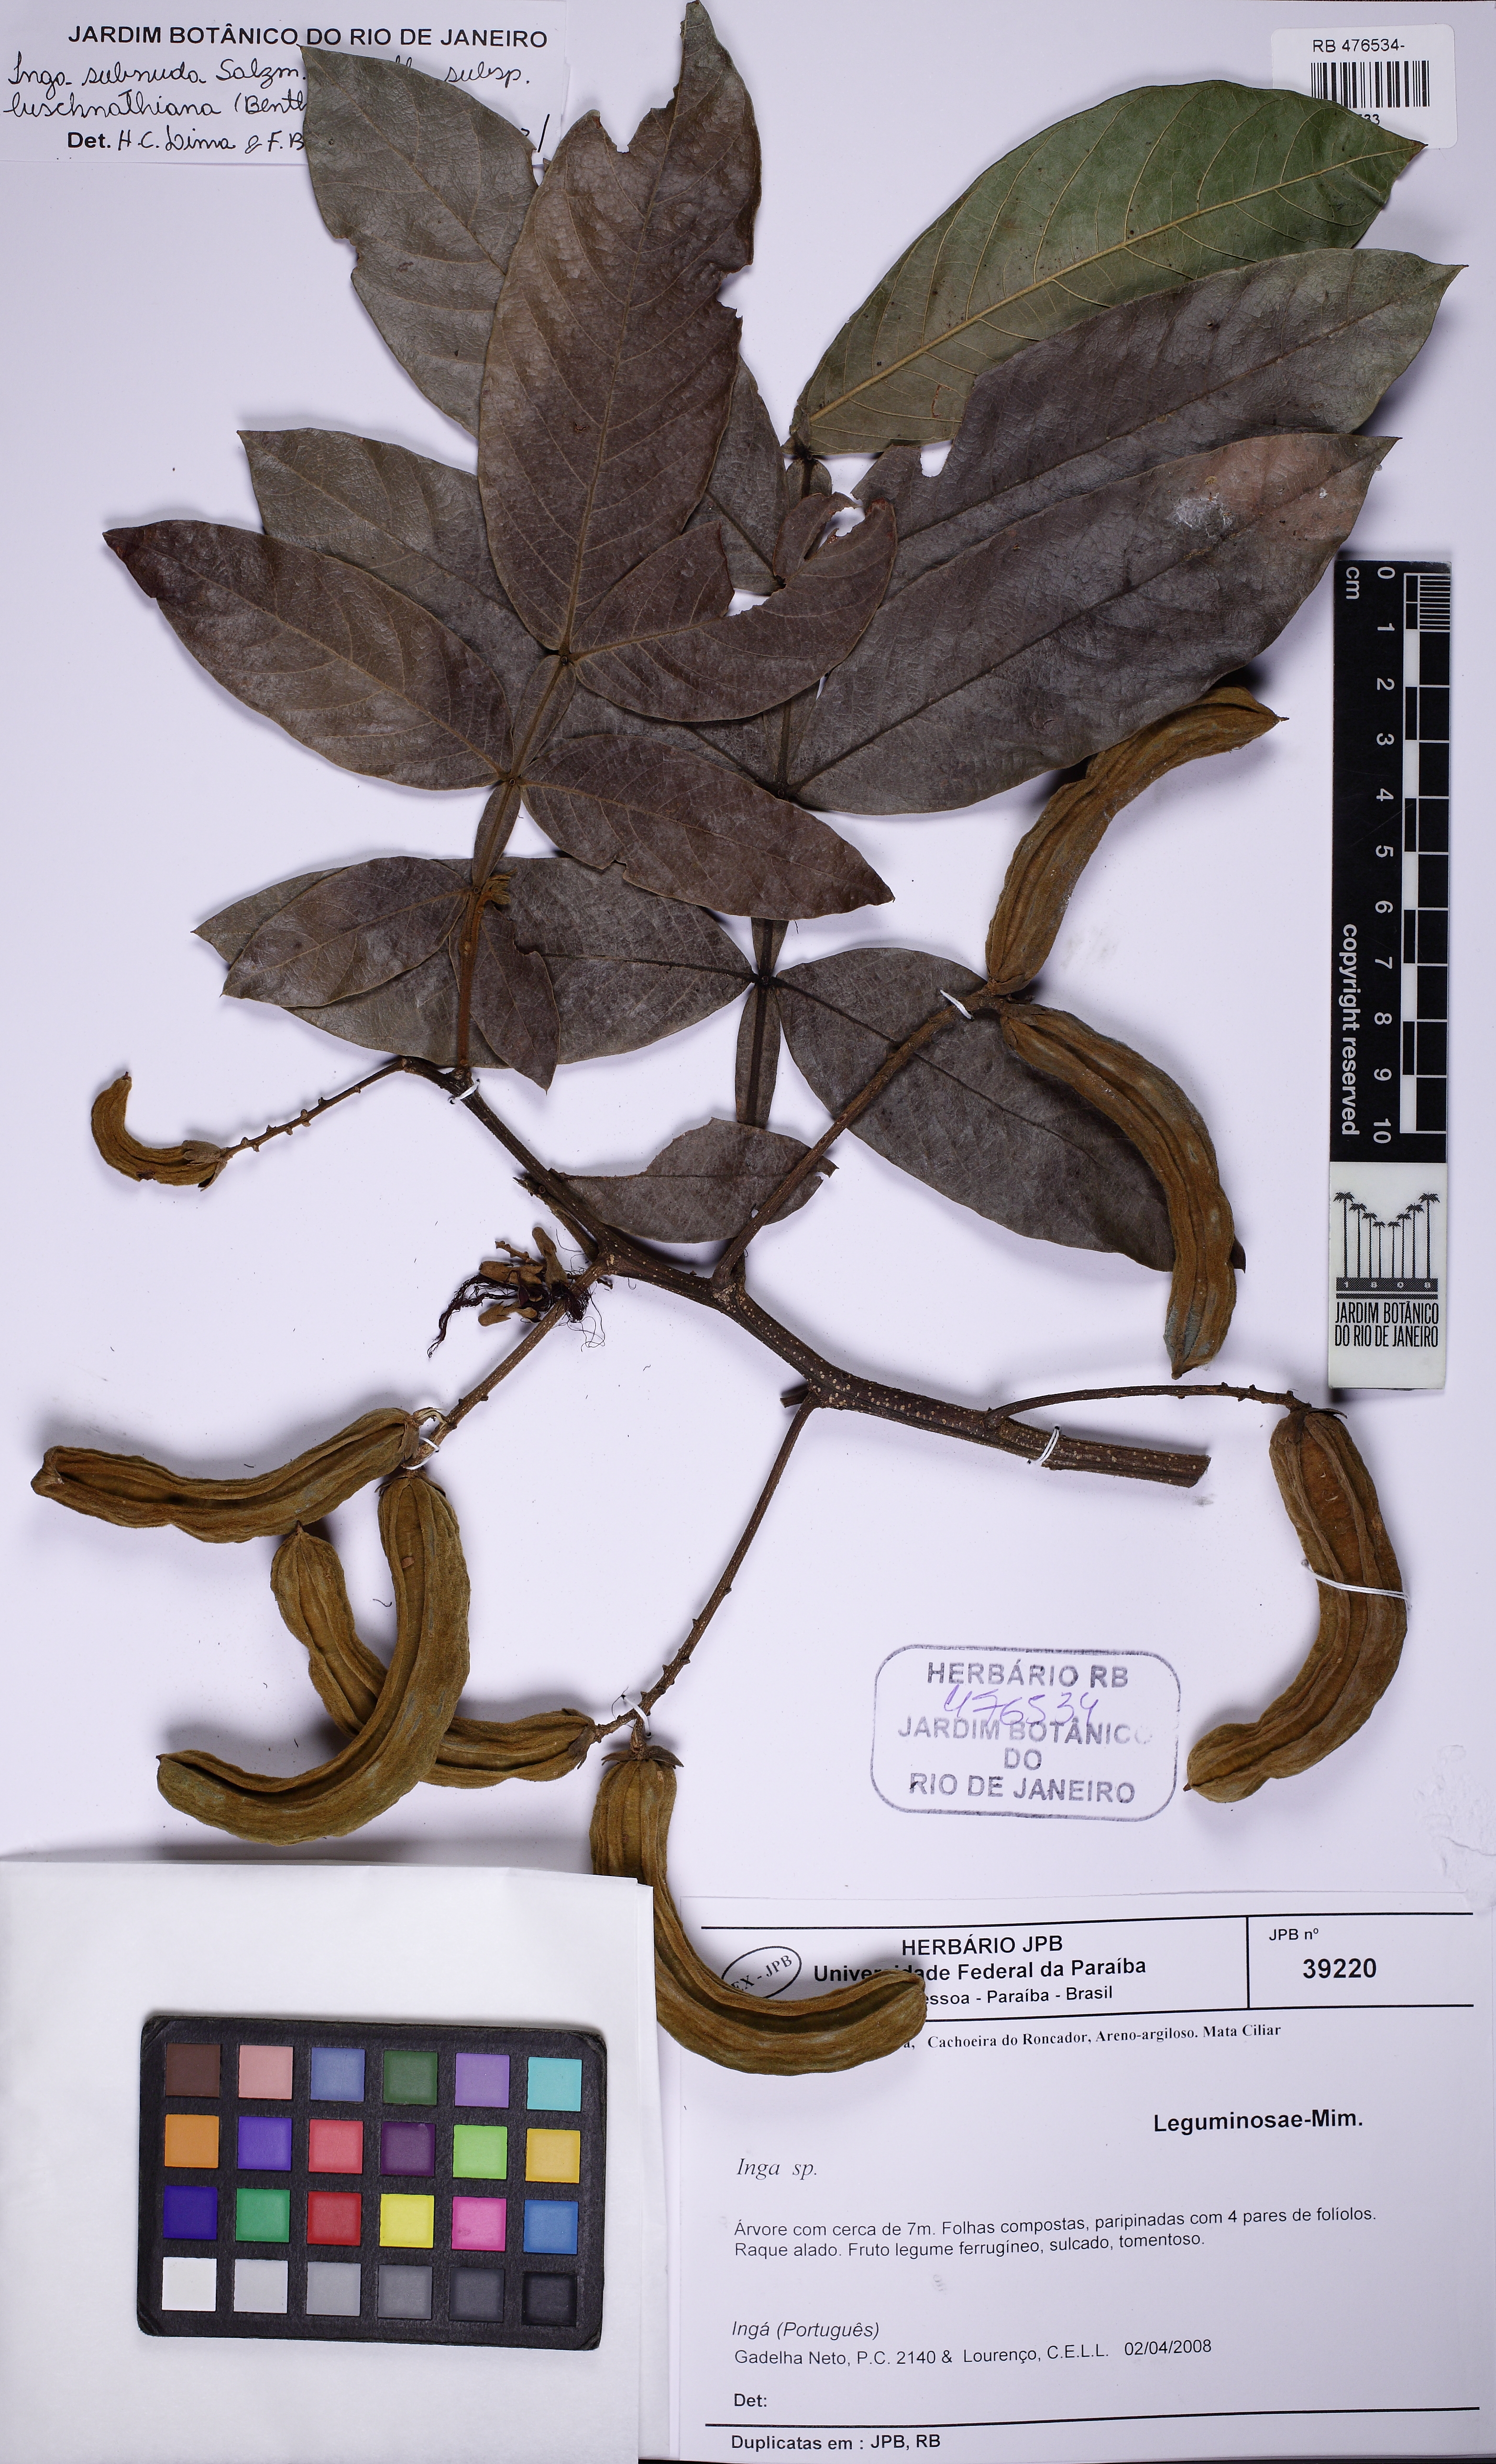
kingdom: Plantae
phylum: Tracheophyta
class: Magnoliopsida
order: Fabales
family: Fabaceae
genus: Inga
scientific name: Inga affinis
